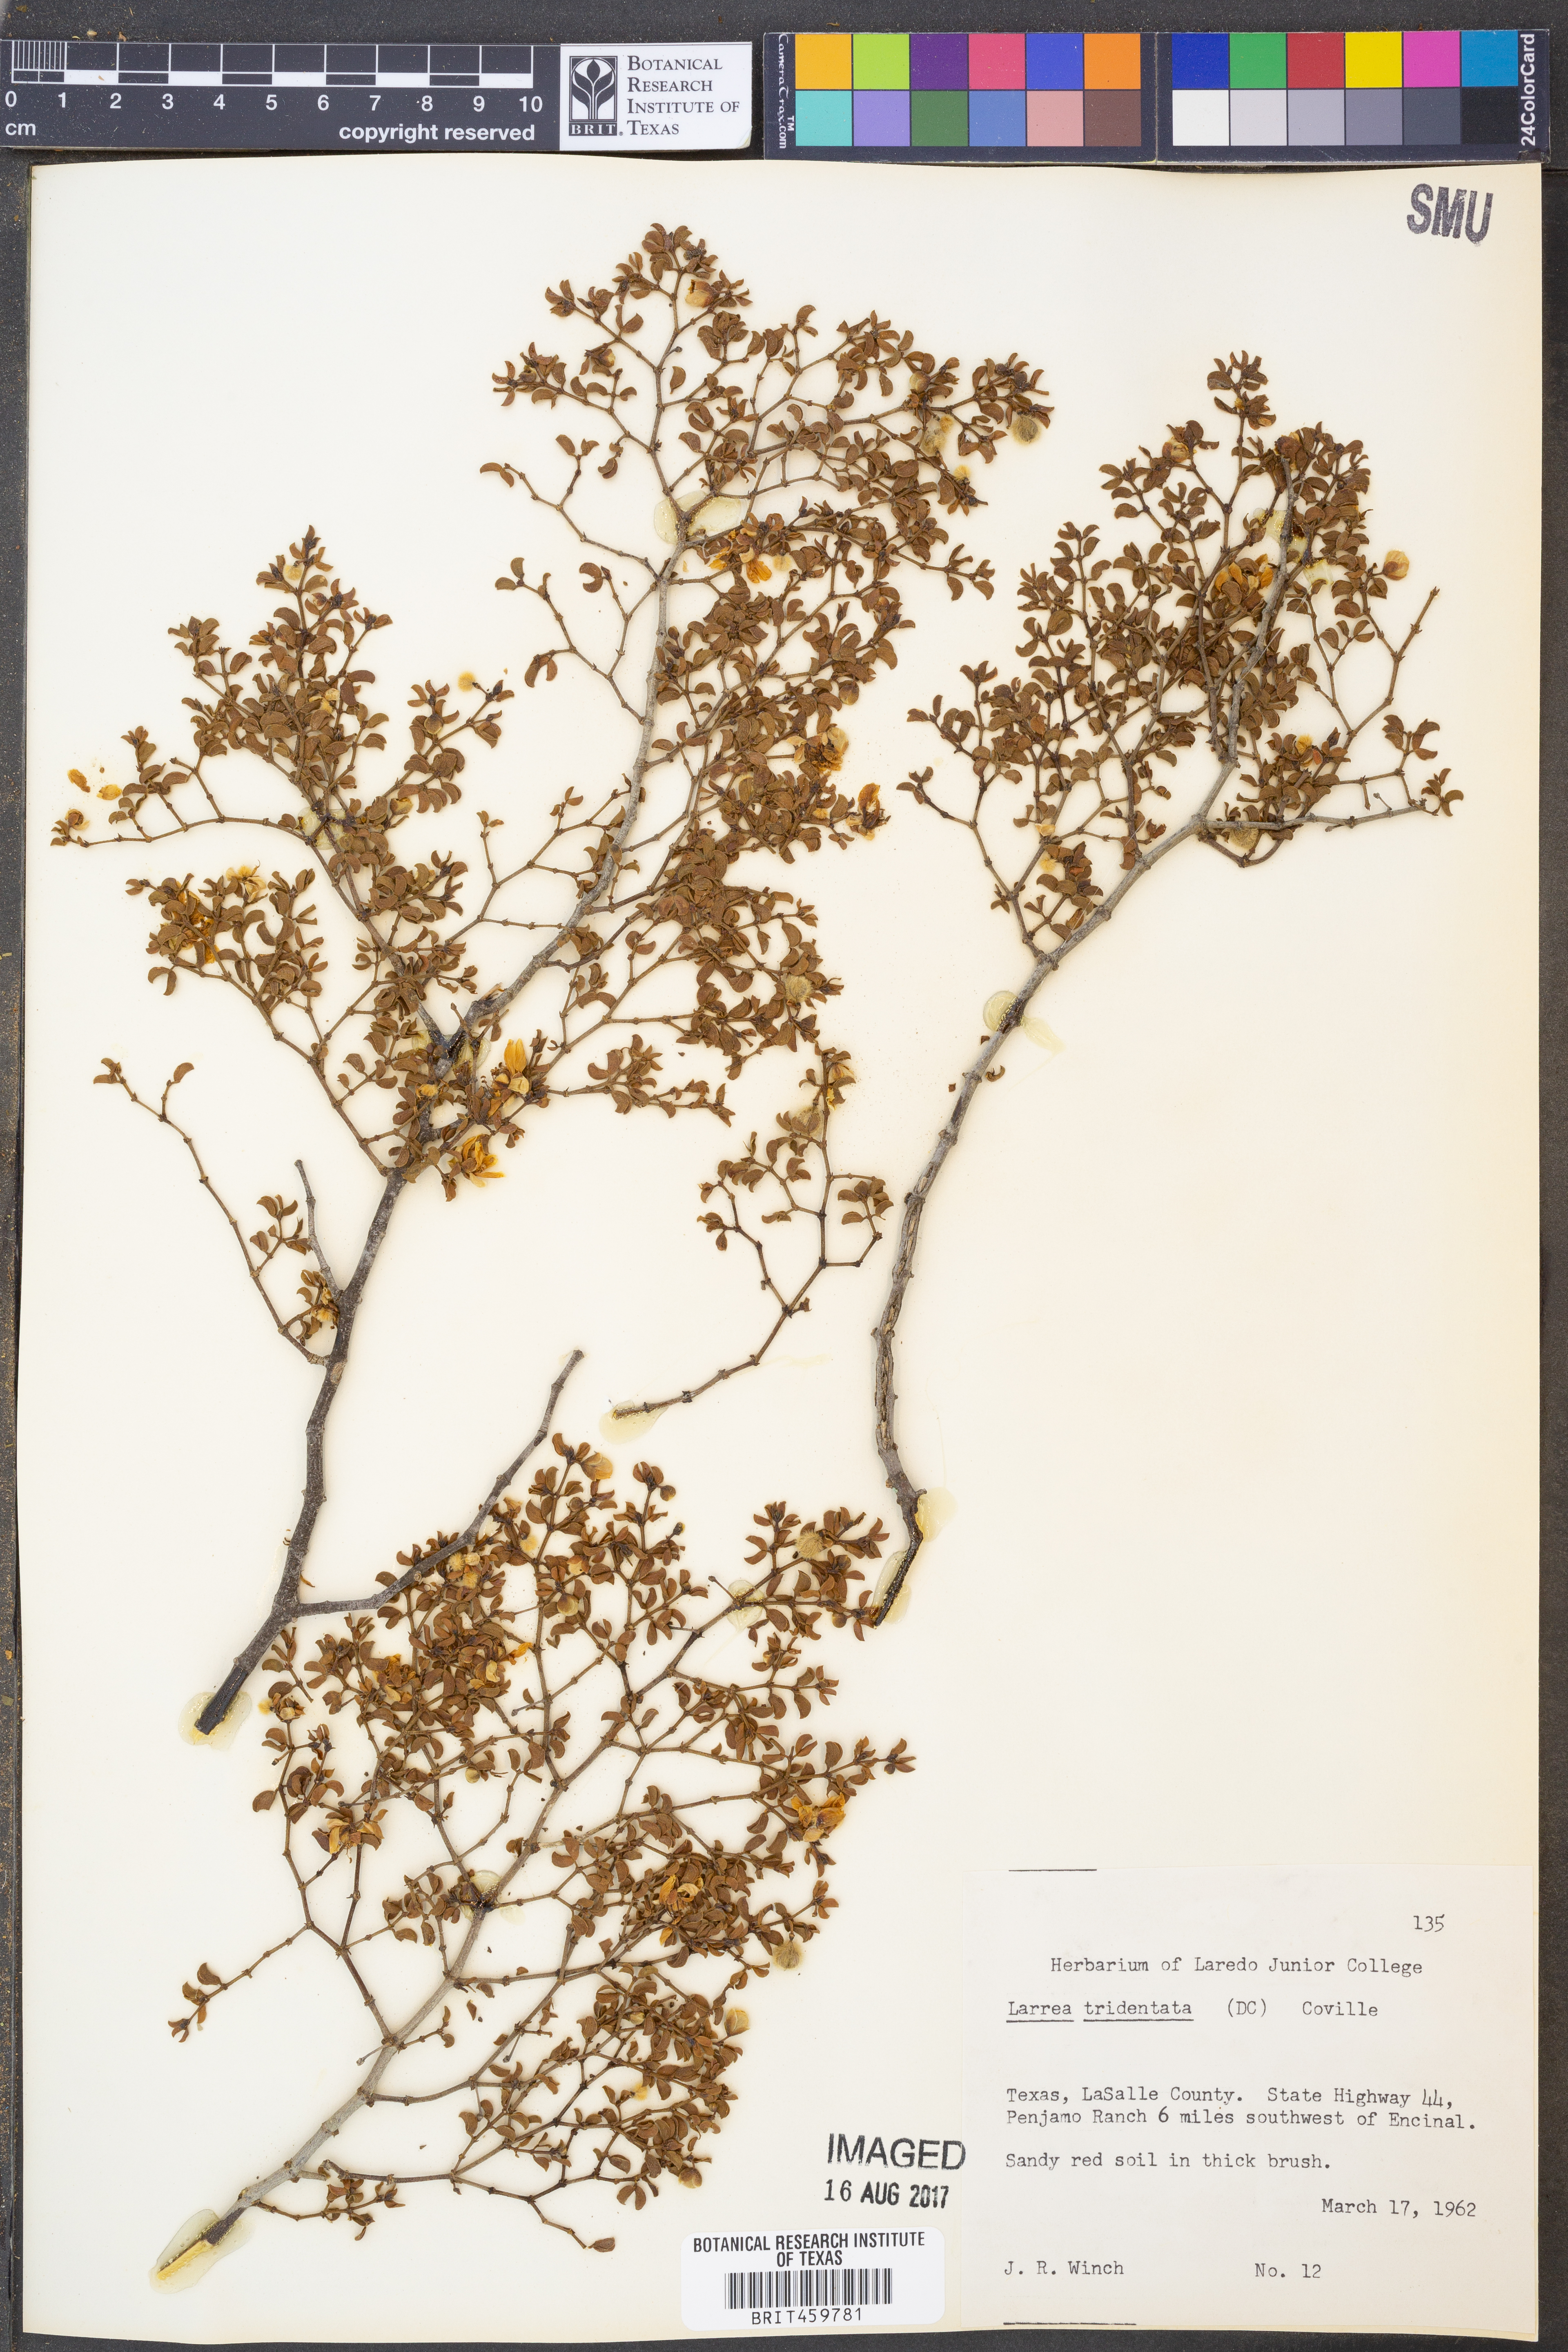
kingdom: Plantae
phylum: Tracheophyta
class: Magnoliopsida
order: Zygophyllales
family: Zygophyllaceae
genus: Larrea
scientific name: Larrea tridentata
